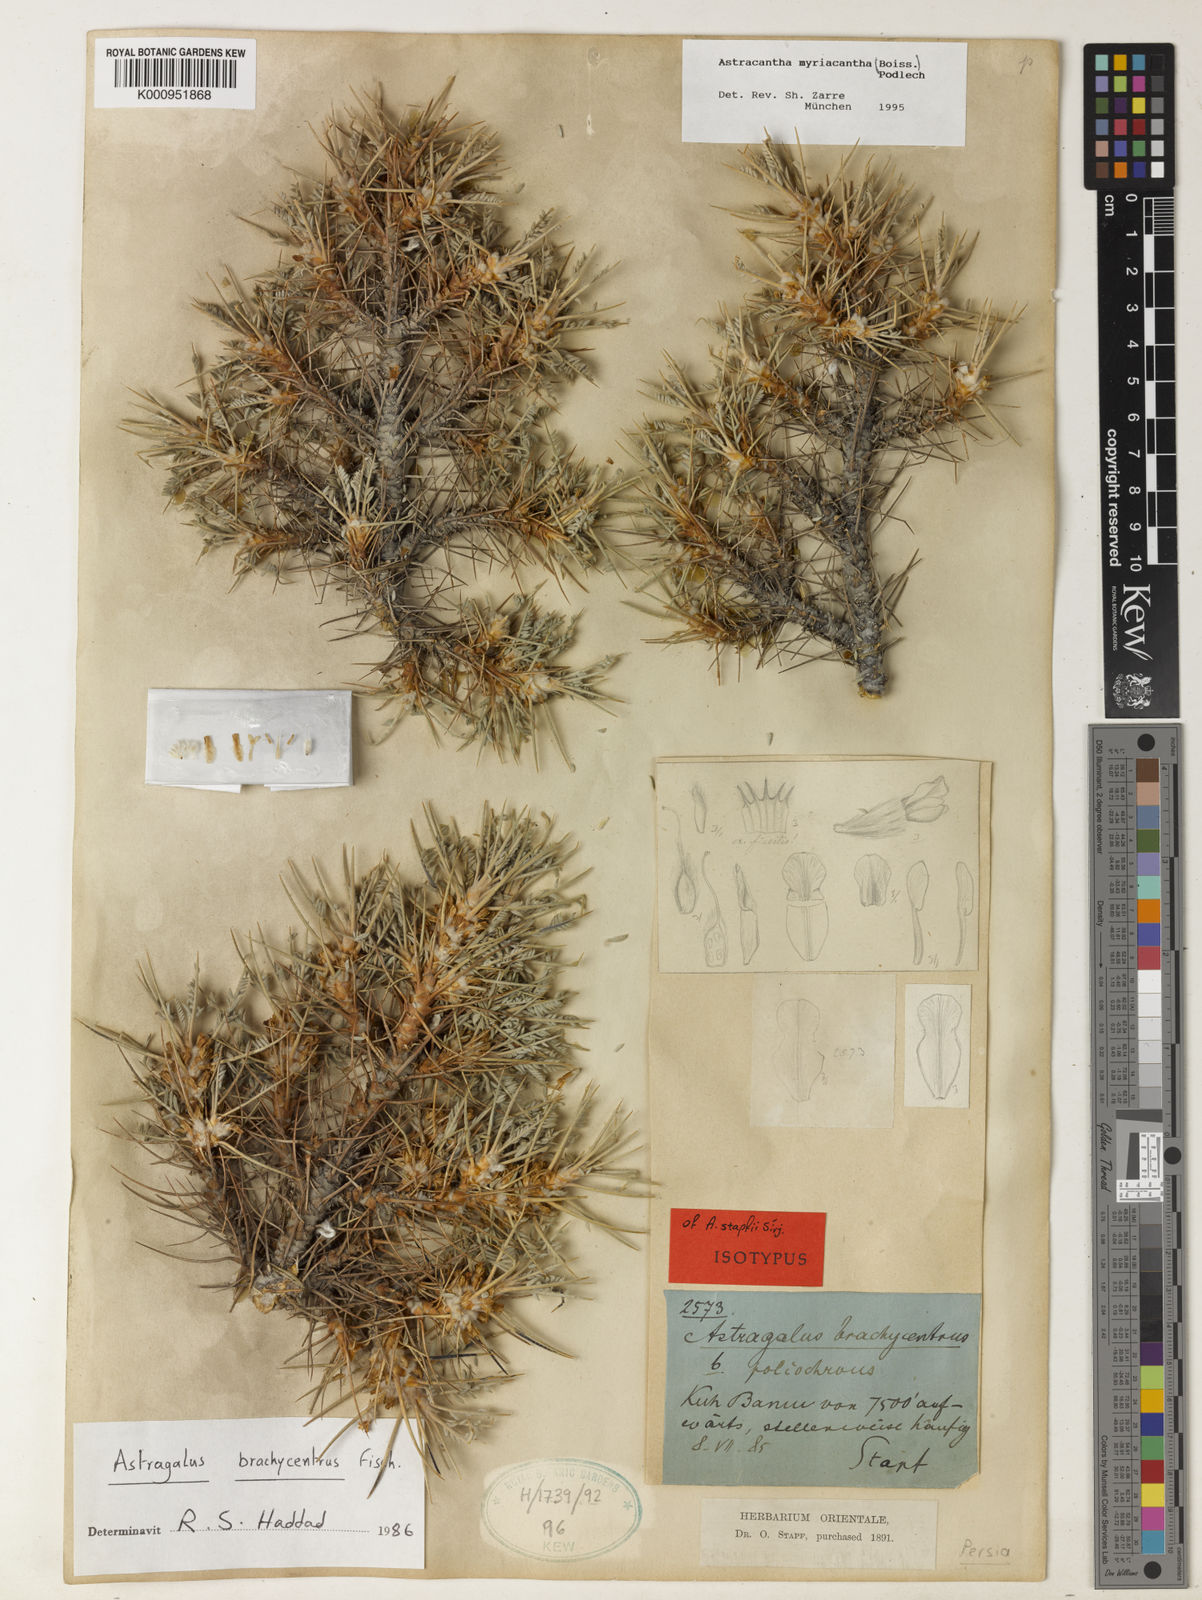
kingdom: Plantae
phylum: Tracheophyta
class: Magnoliopsida
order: Fabales
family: Fabaceae
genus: Astragalus
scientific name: Astragalus myriacanthus
